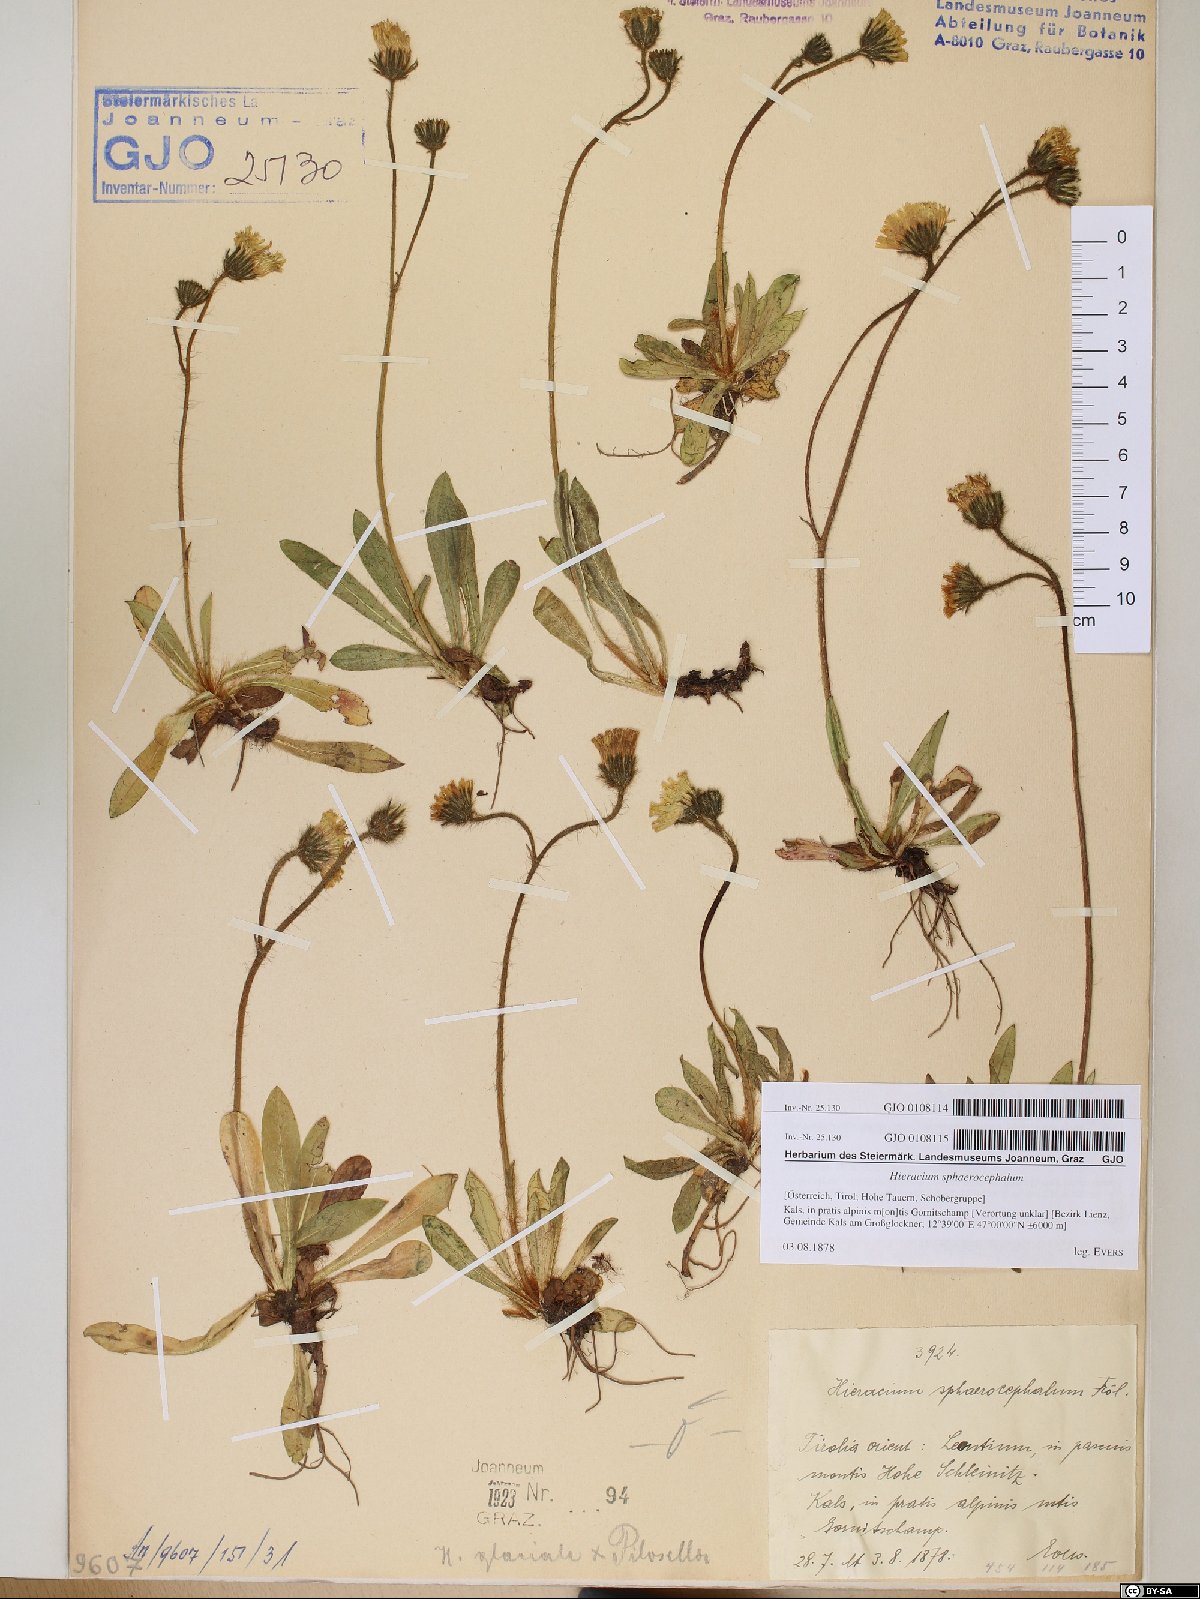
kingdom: Plantae
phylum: Tracheophyta
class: Magnoliopsida
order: Asterales
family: Asteraceae
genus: Pilosella
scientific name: Pilosella sphaerocephala
